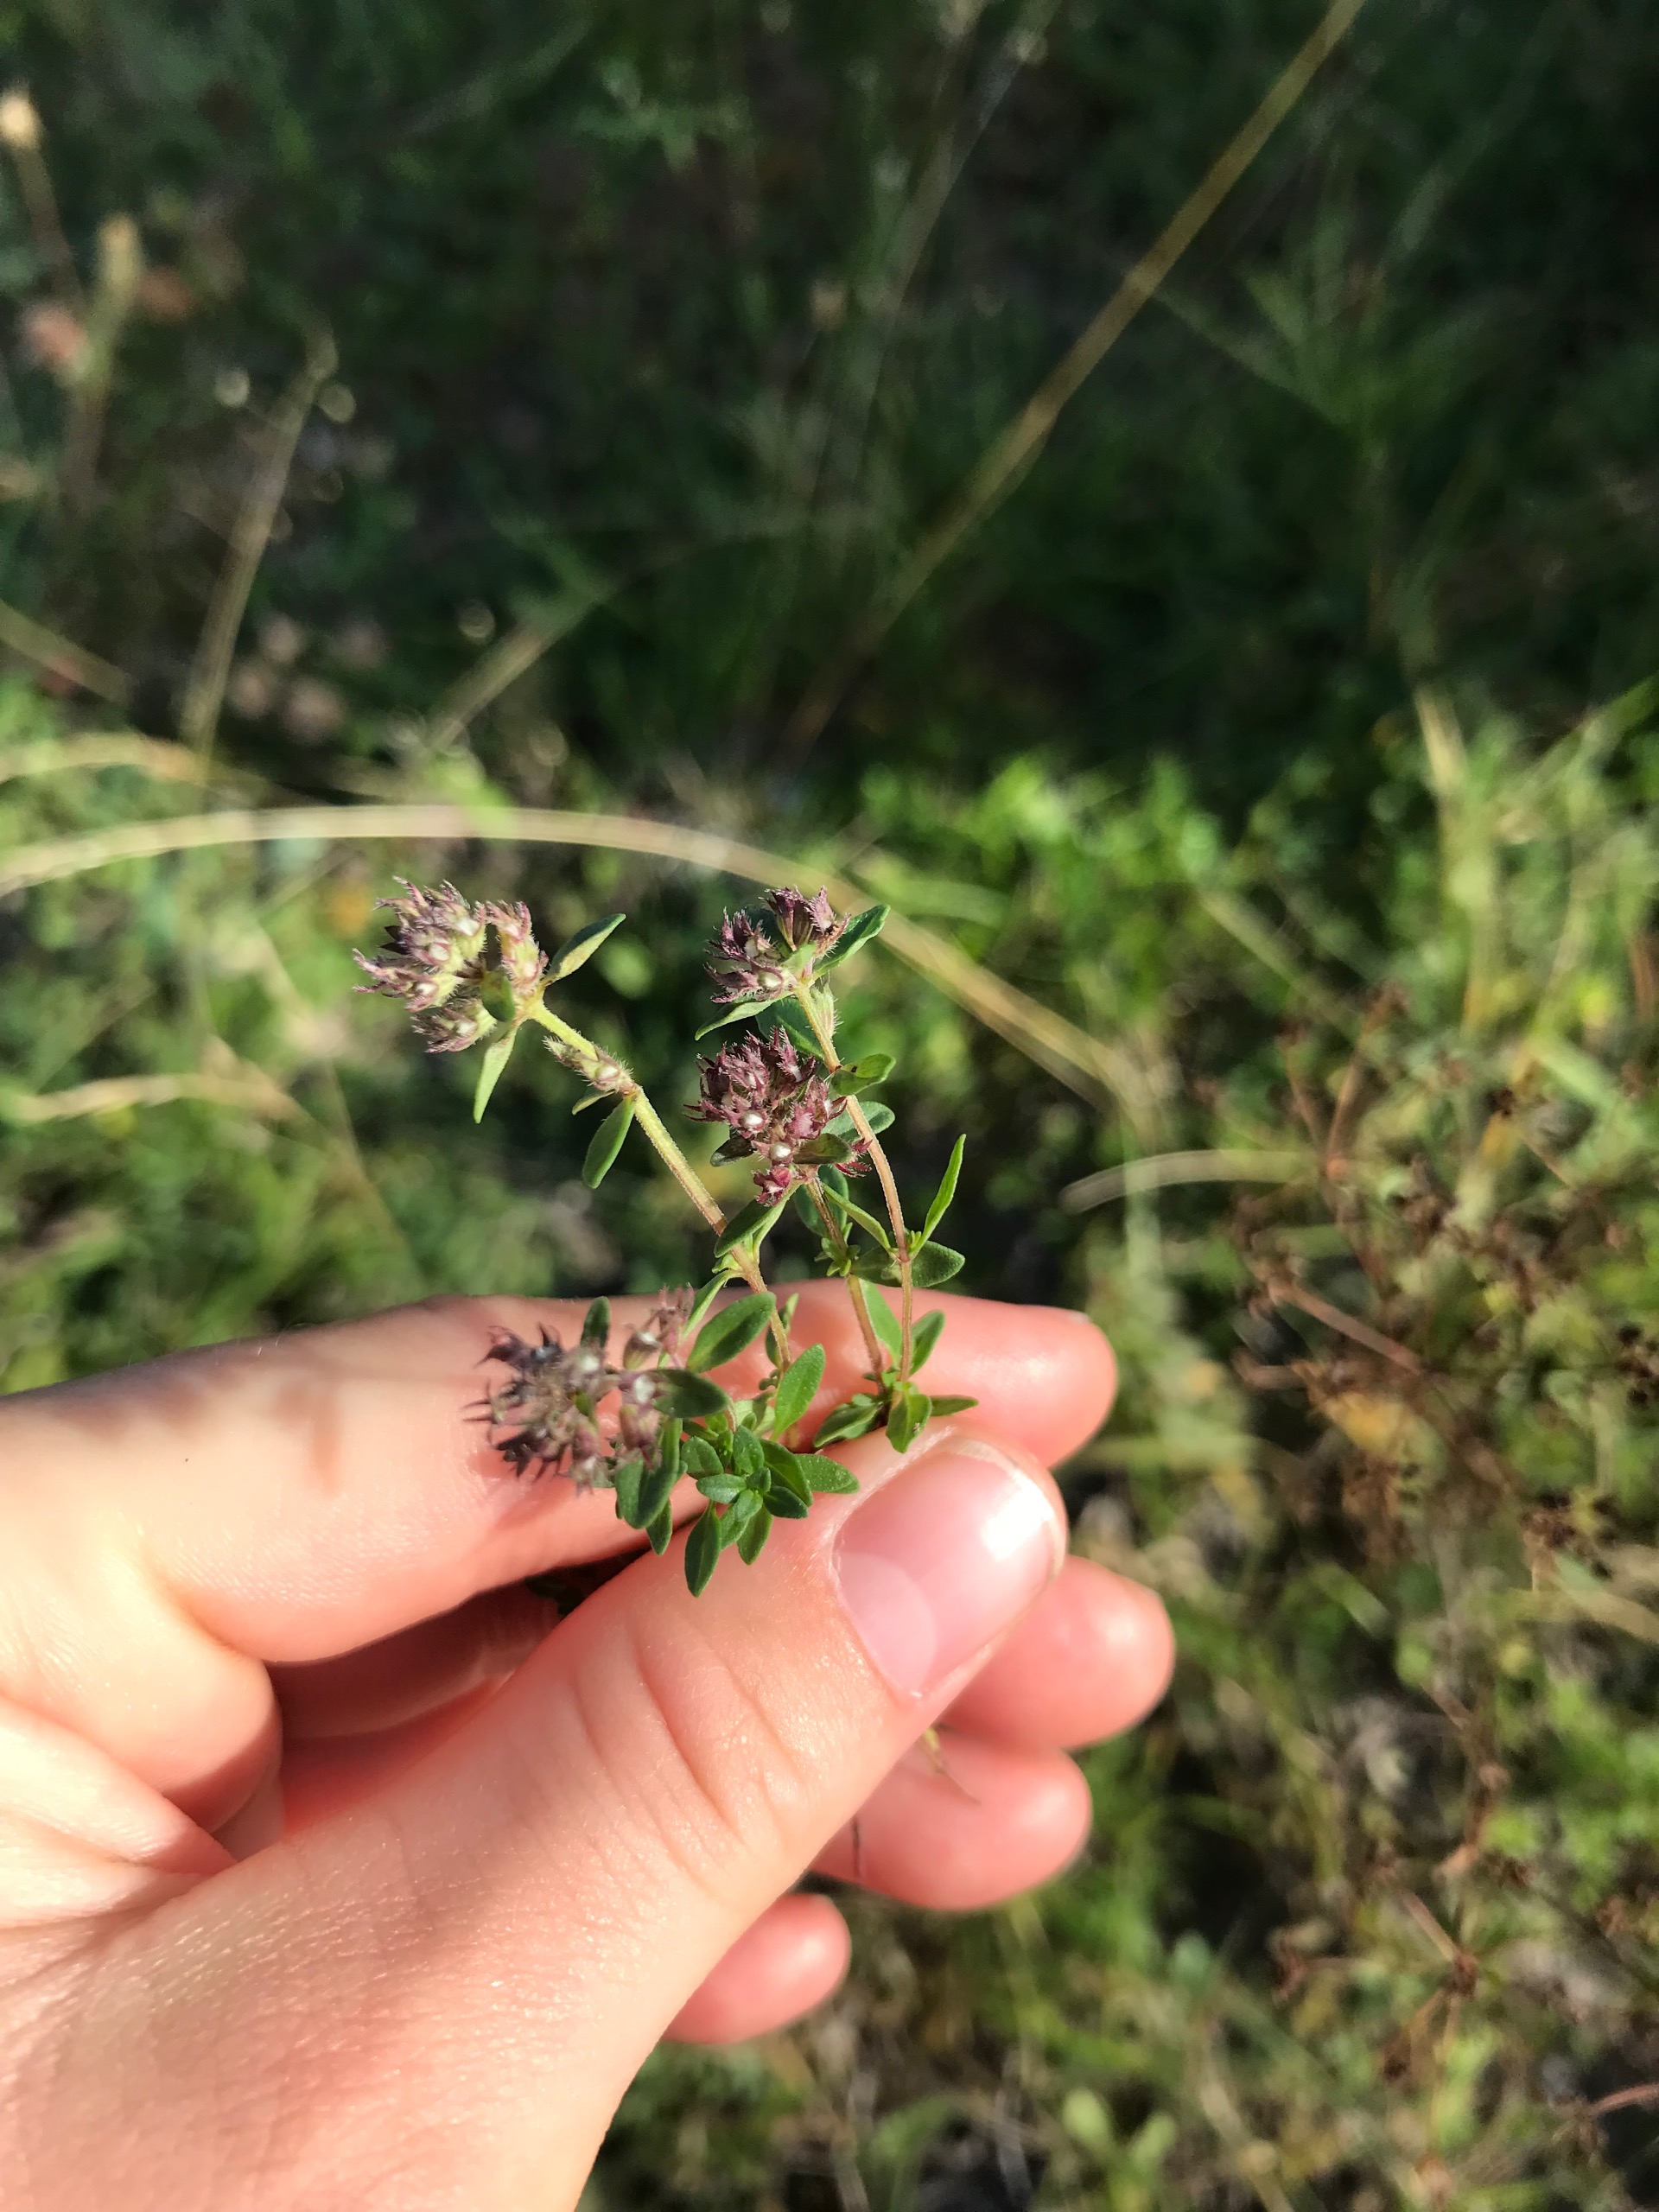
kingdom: Plantae
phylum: Tracheophyta
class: Magnoliopsida
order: Lamiales
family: Lamiaceae
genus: Thymus
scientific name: Thymus pulegioides
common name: Bredbladet timian
